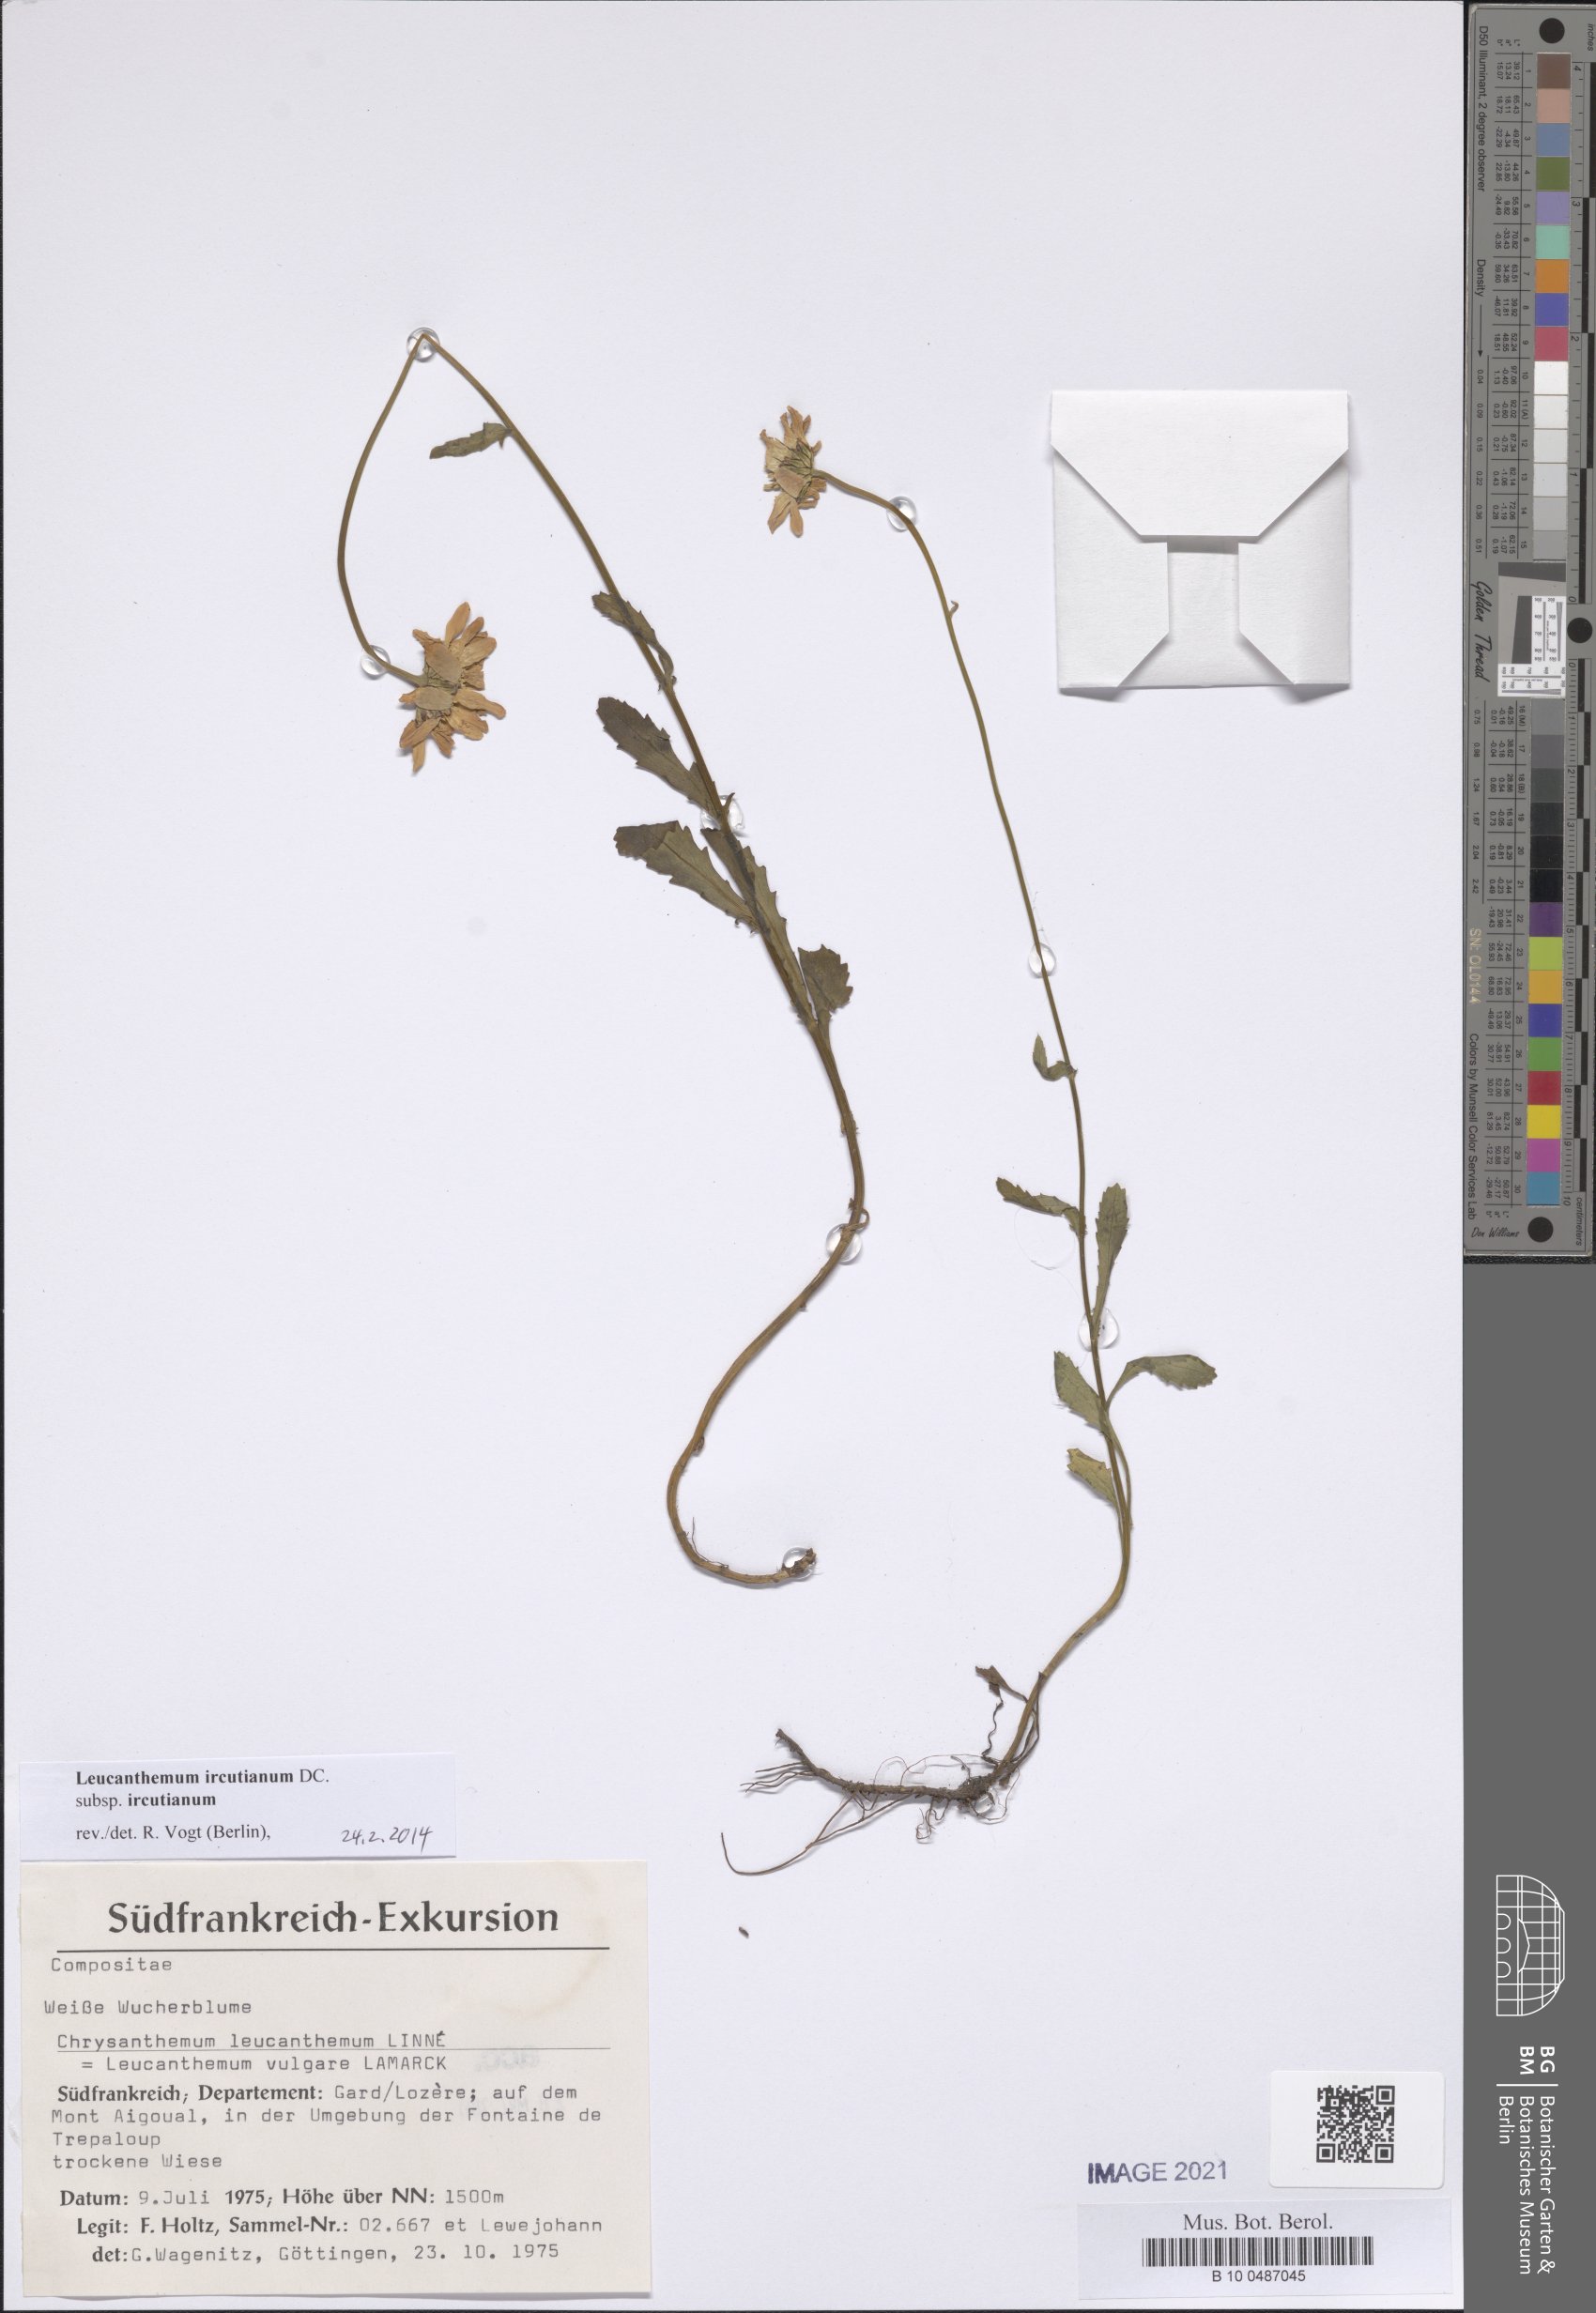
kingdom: Plantae
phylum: Tracheophyta
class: Magnoliopsida
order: Asterales
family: Asteraceae
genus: Leucanthemum
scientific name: Leucanthemum ircutianum
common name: Daisy
